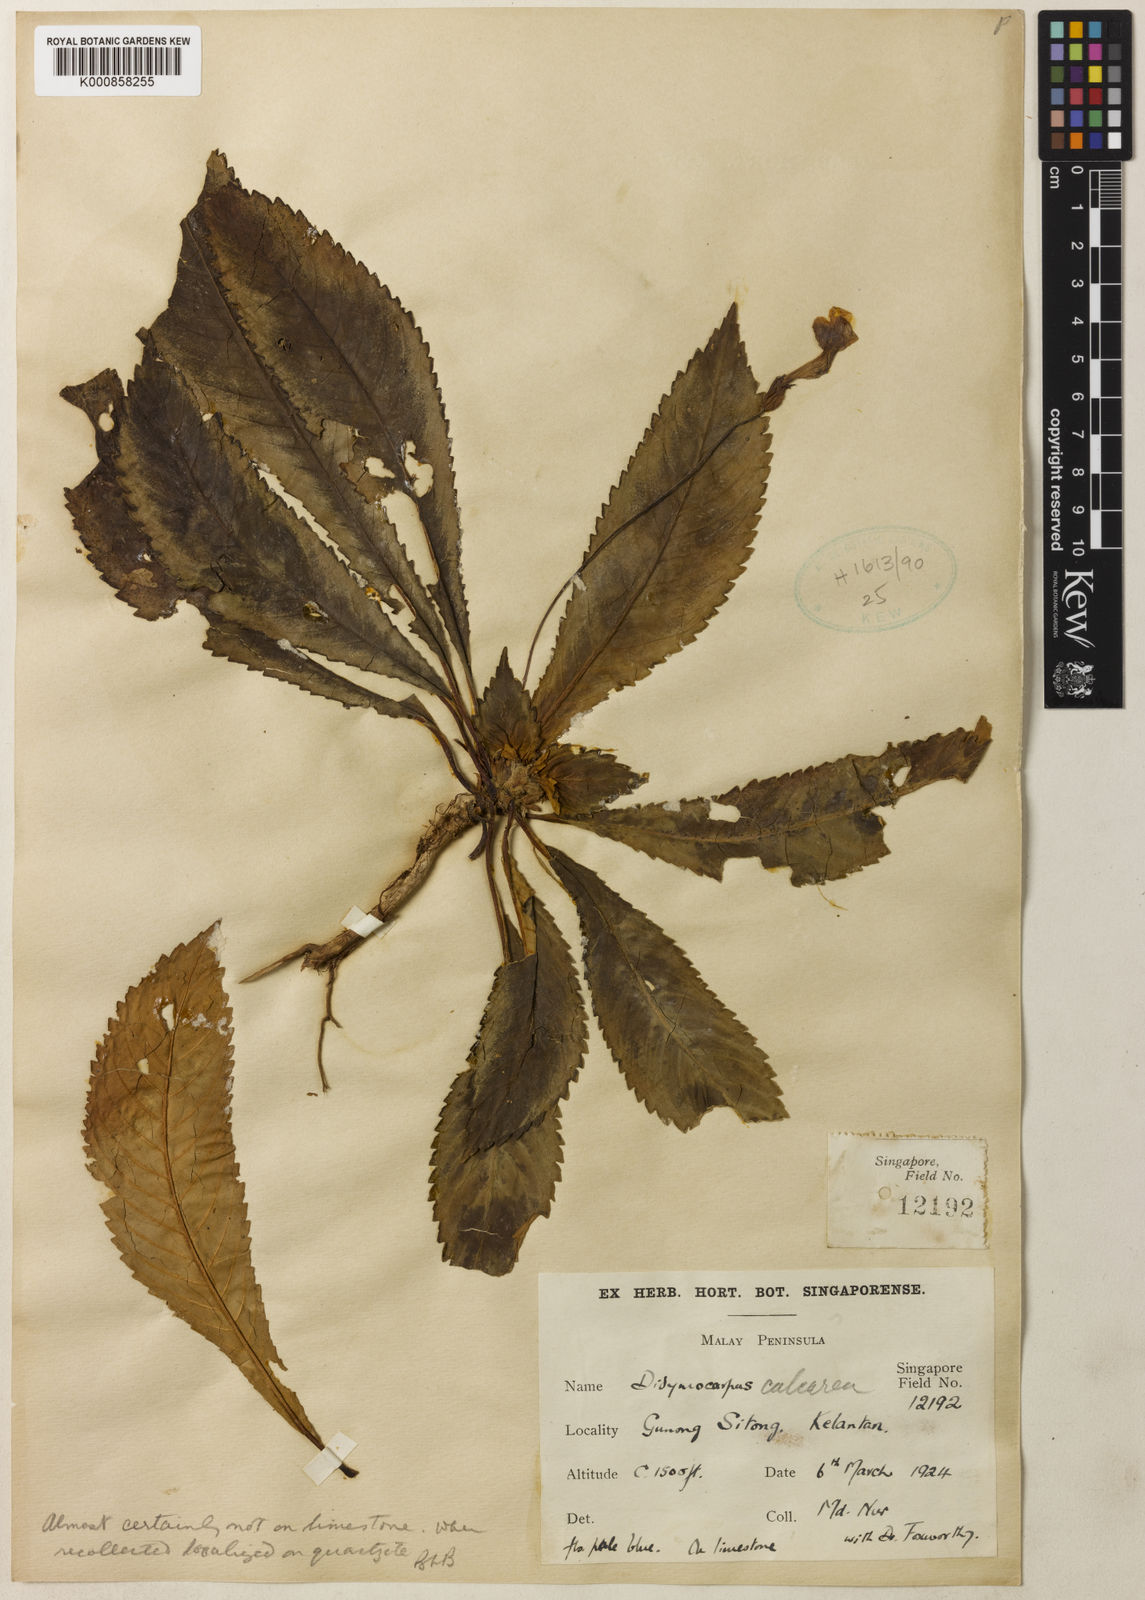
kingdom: Plantae
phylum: Tracheophyta
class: Magnoliopsida
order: Lamiales
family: Gesneriaceae
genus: Codonoboea
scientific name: Codonoboea calcarea
